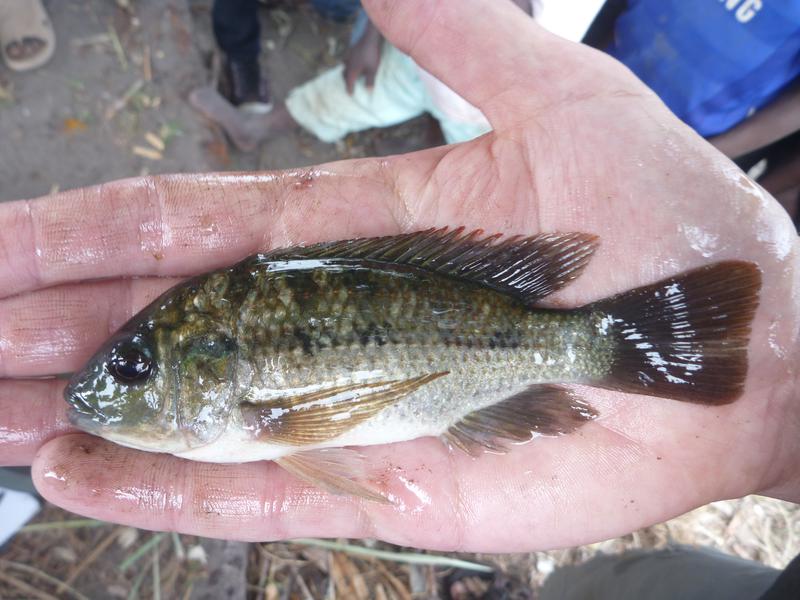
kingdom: Animalia
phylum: Chordata
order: Perciformes
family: Cichlidae
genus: Oreochromis
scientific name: Oreochromis shiranus
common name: Chilwa tilapia
